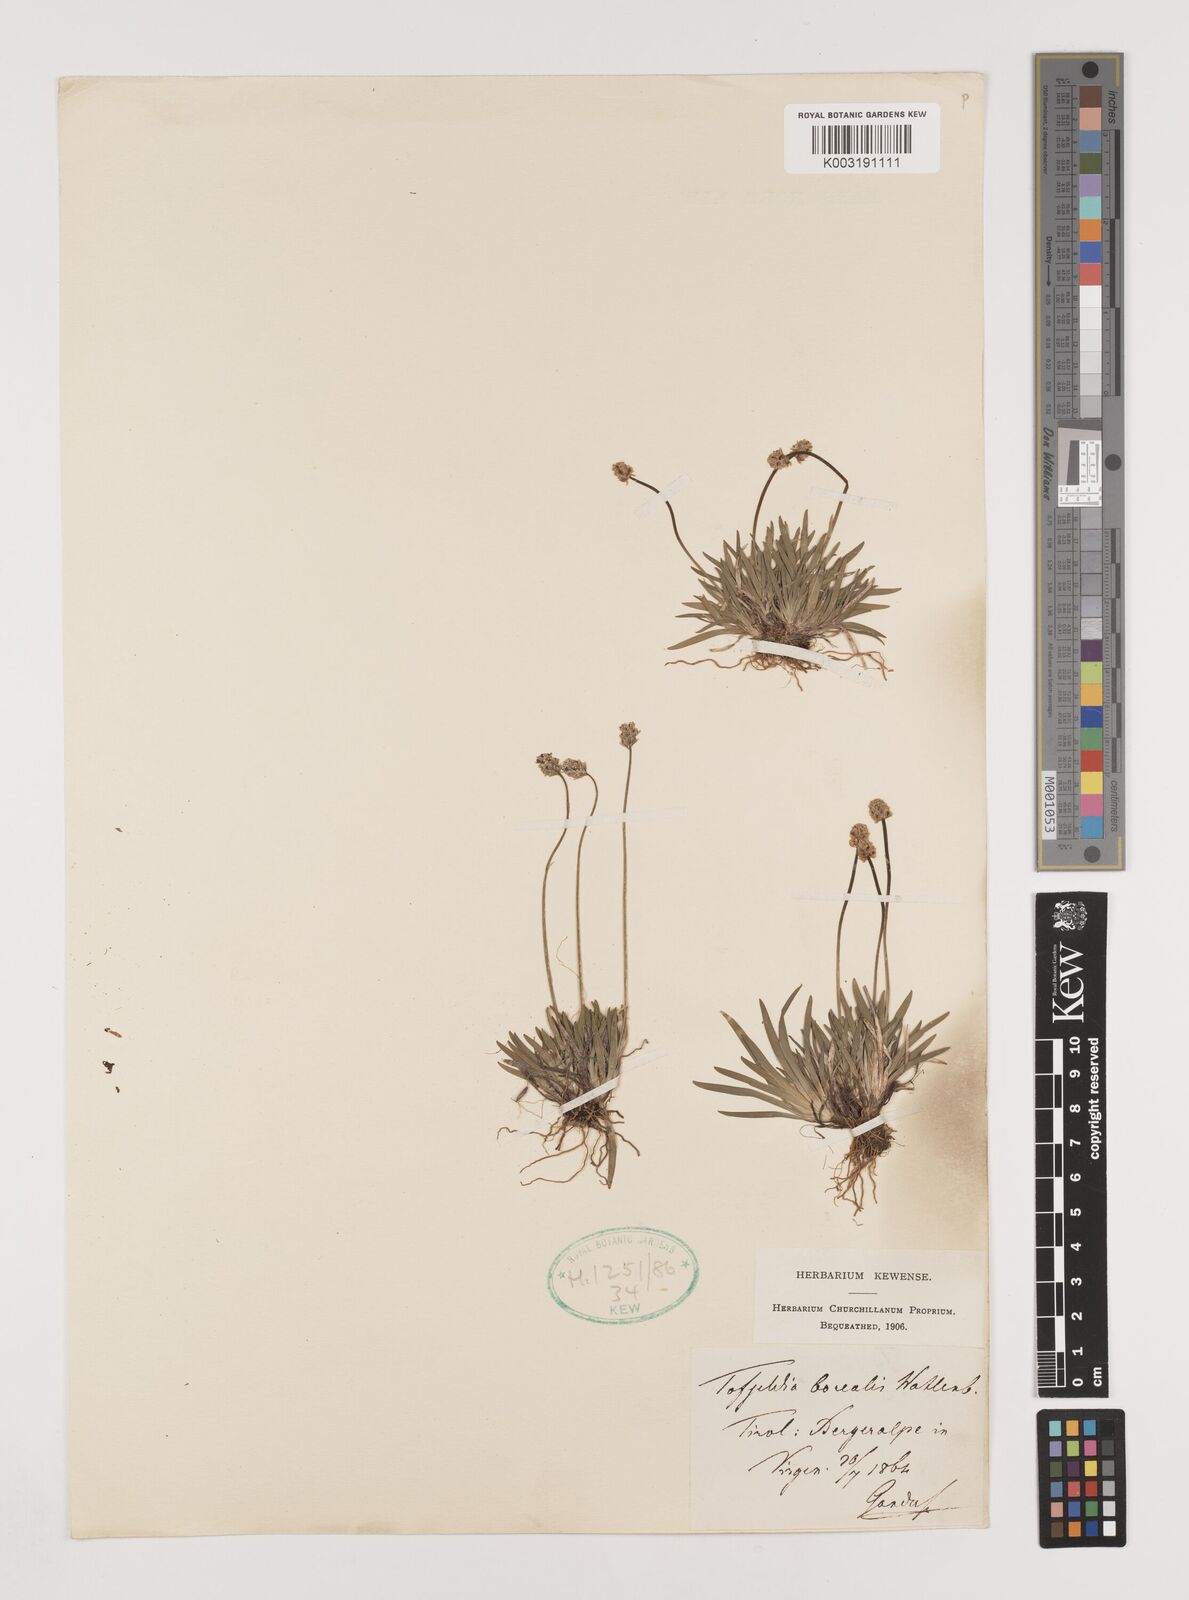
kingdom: Plantae
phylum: Tracheophyta
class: Liliopsida
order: Alismatales
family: Tofieldiaceae
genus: Tofieldia
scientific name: Tofieldia pusilla
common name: Scottish false asphodel
